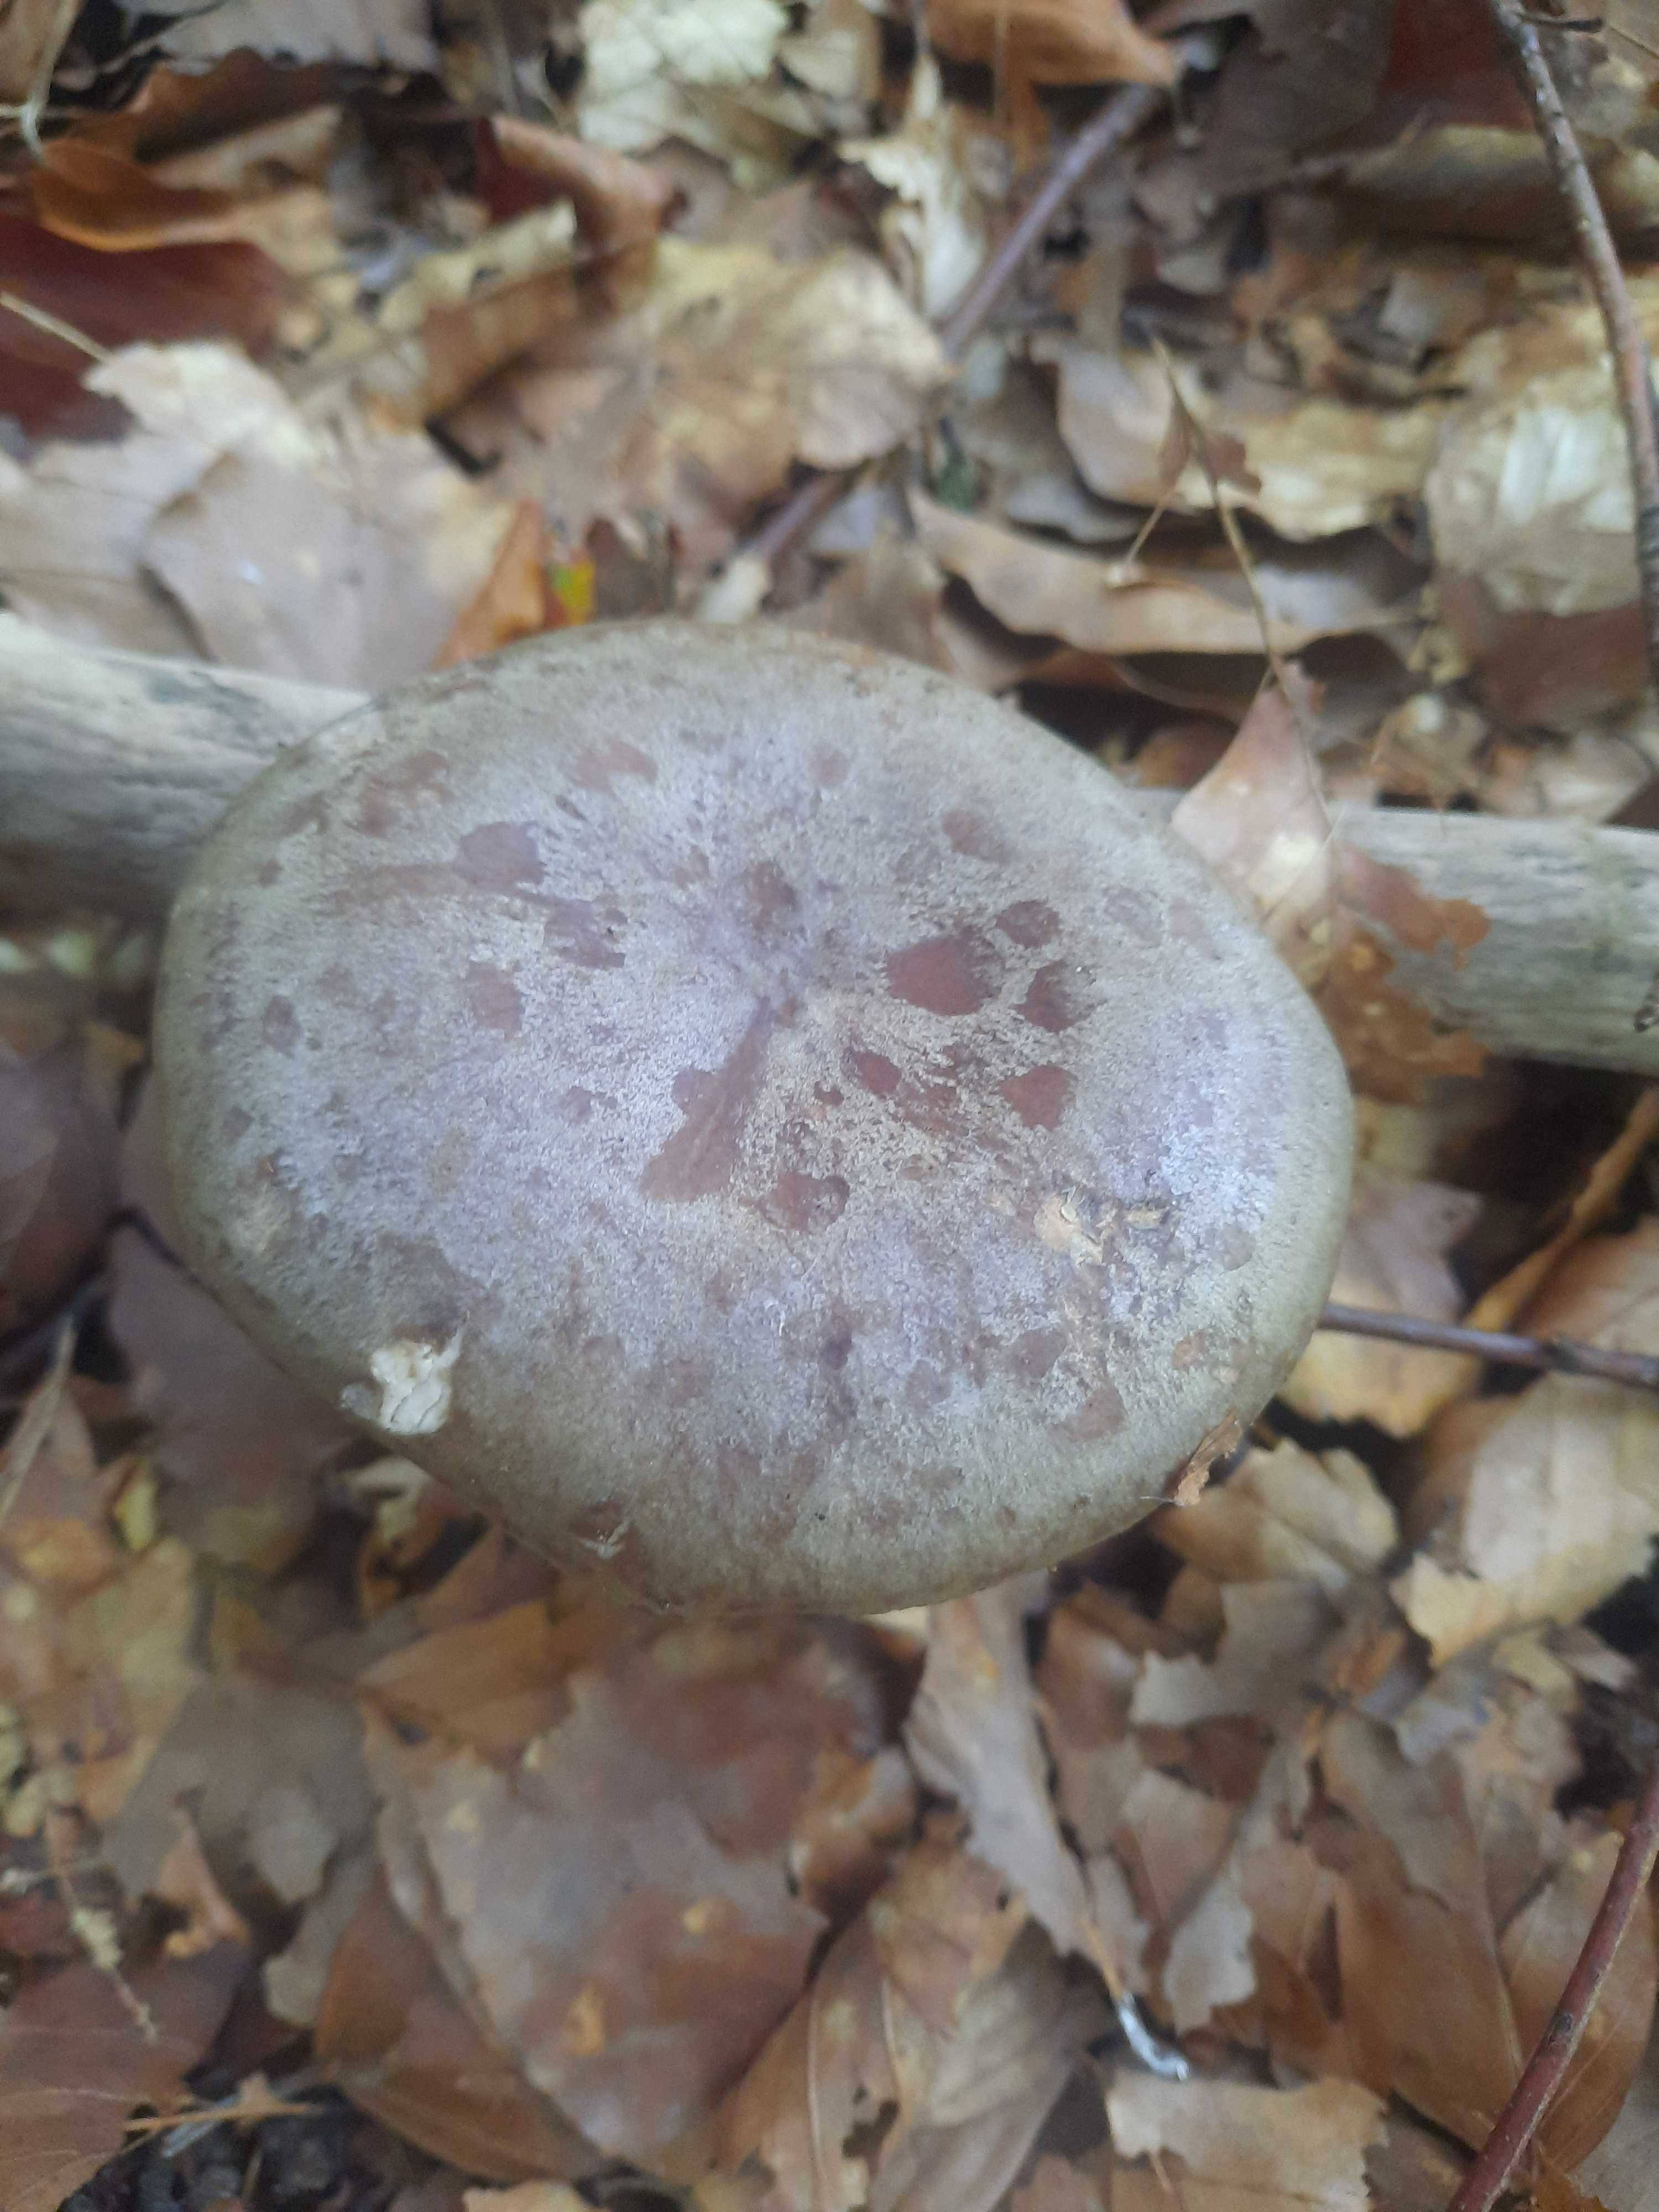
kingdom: Fungi
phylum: Basidiomycota
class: Agaricomycetes
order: Russulales
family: Russulaceae
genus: Lactarius
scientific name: Lactarius blennius
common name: dråbeplettet mælkehat
